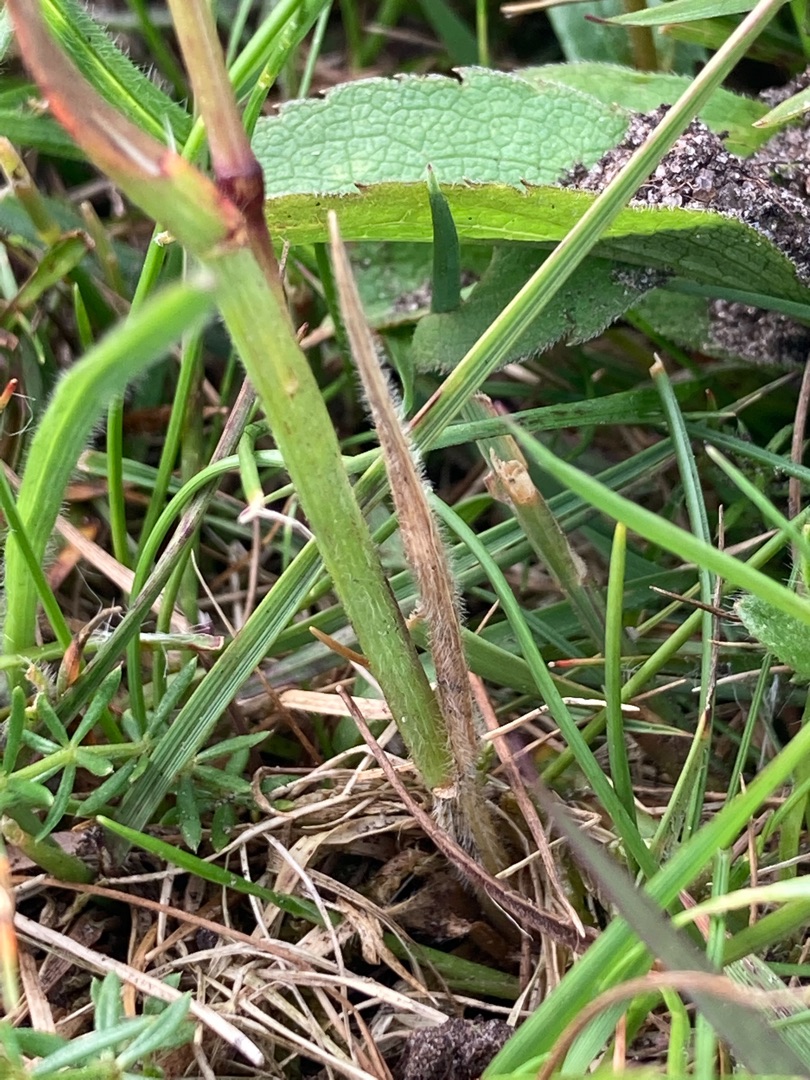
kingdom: Plantae
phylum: Tracheophyta
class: Liliopsida
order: Poales
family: Poaceae
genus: Avenula
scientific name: Avenula pubescens
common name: Dunet havre
